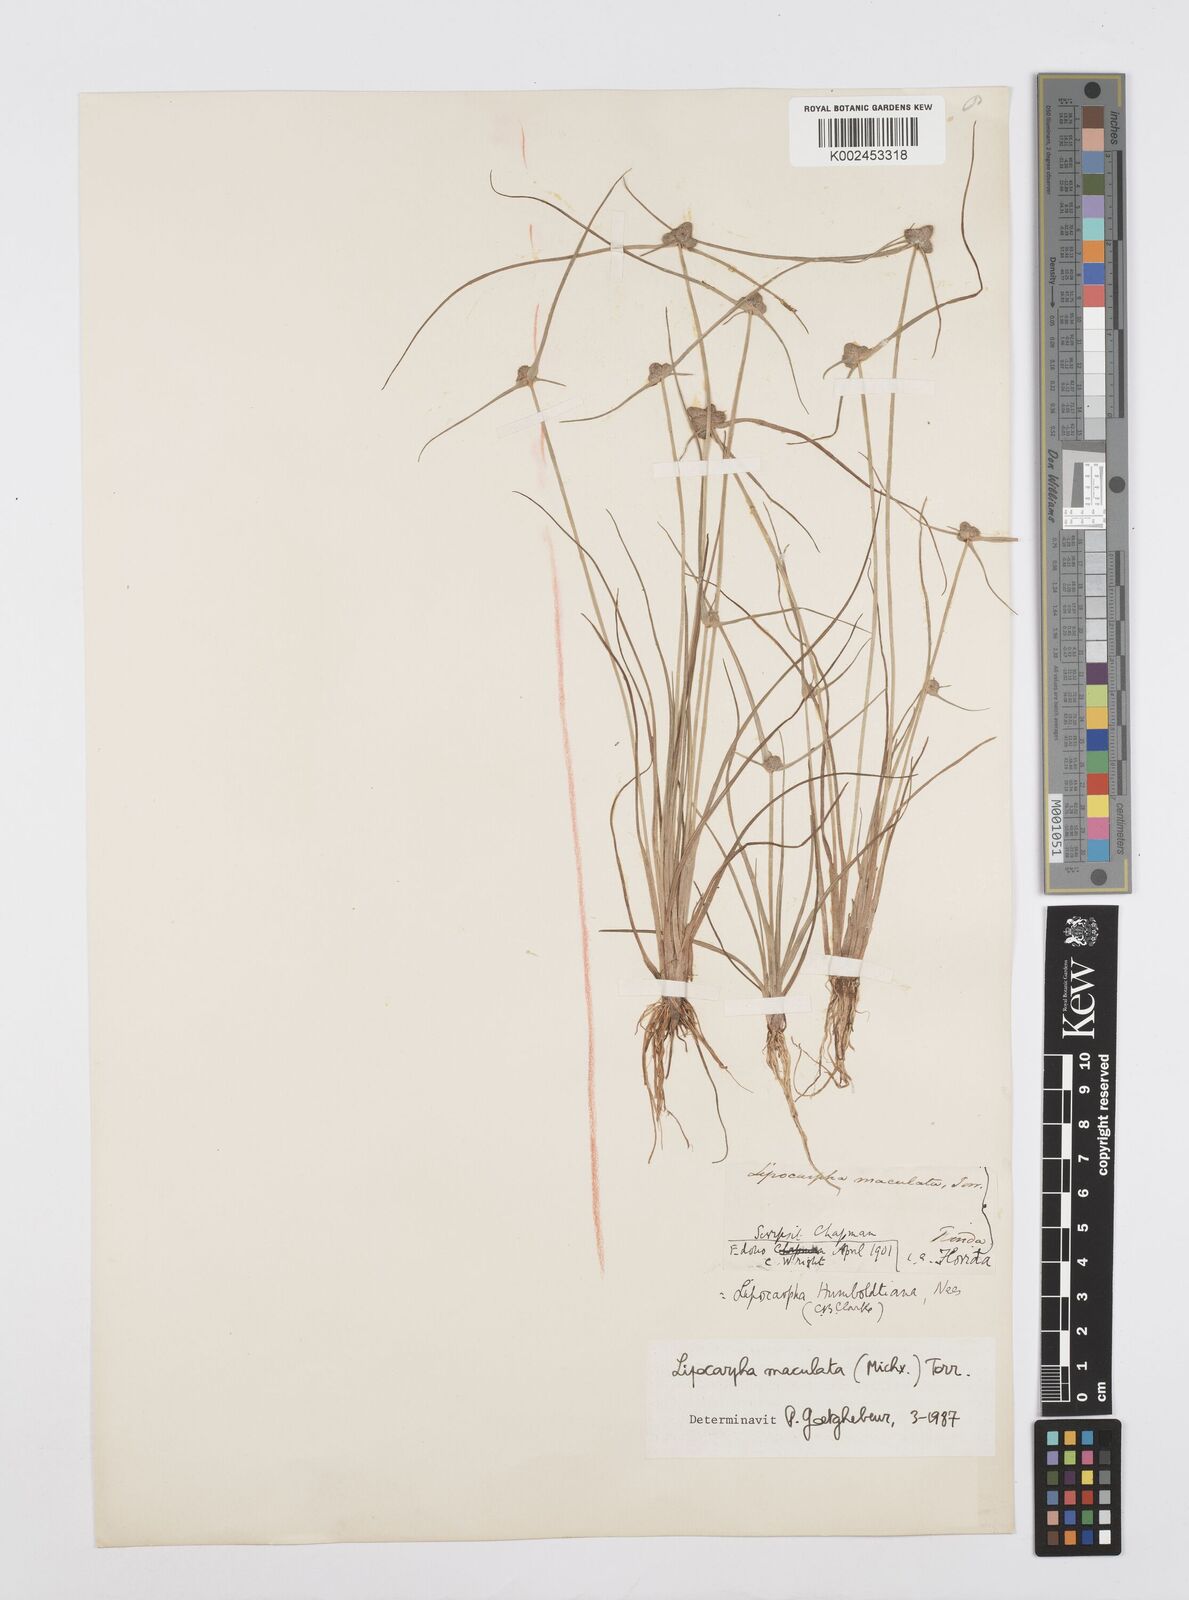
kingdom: Plantae
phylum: Tracheophyta
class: Liliopsida
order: Poales
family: Cyperaceae
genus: Cyperus
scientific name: Cyperus maculatus
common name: Maculated sedge
